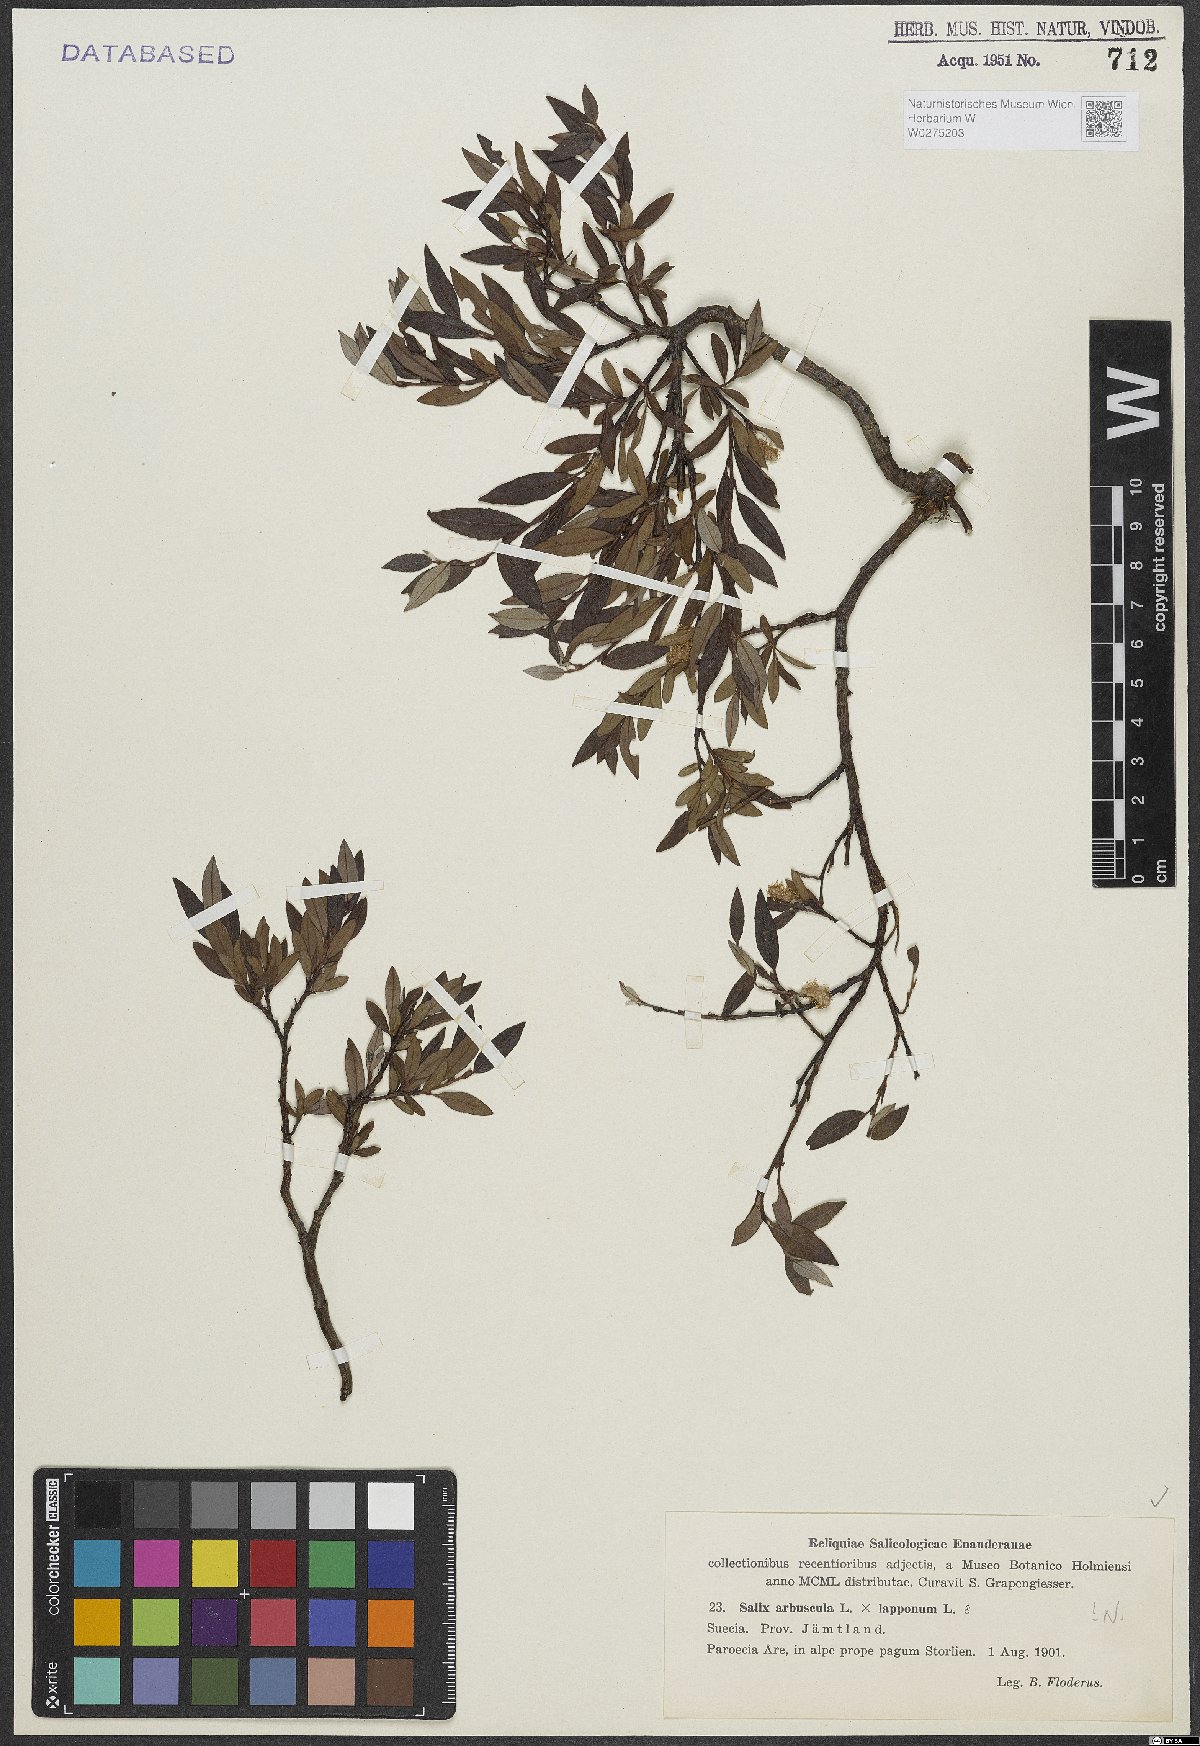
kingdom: Plantae
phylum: Tracheophyta
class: Magnoliopsida
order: Malpighiales
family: Salicaceae
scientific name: Salicaceae
